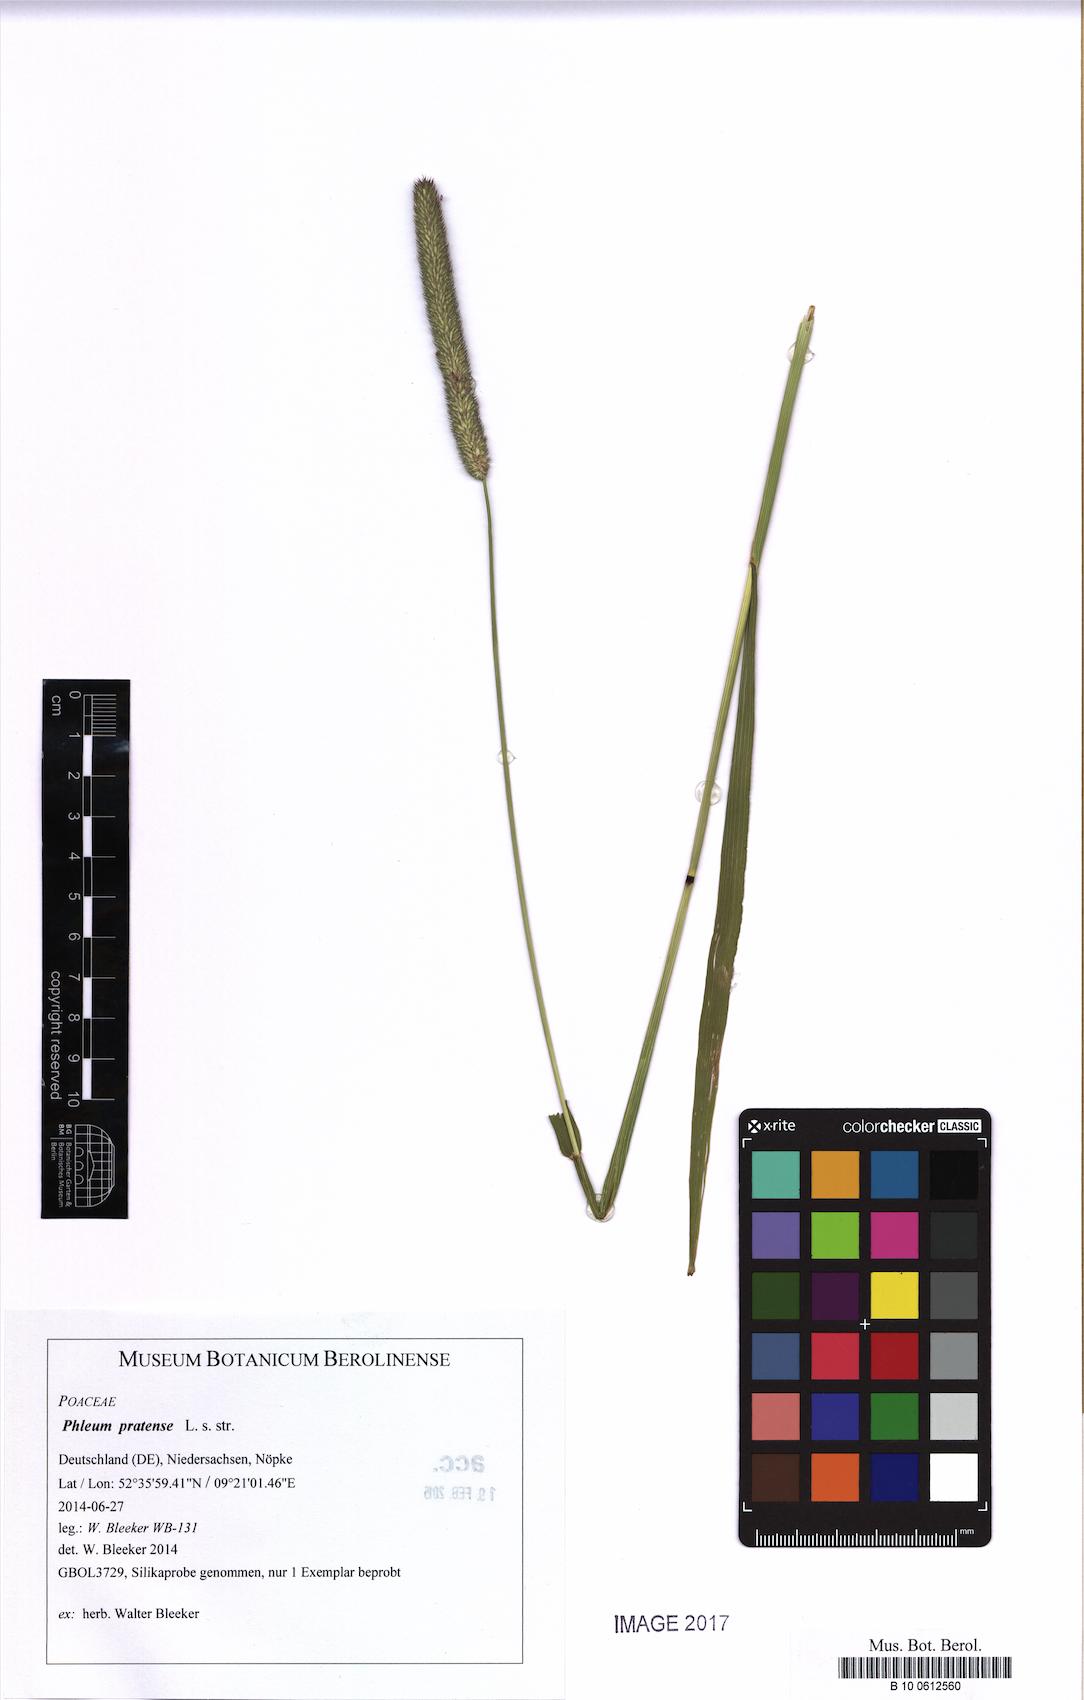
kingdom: Plantae
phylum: Tracheophyta
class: Liliopsida
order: Poales
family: Poaceae
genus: Phleum
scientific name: Phleum pratense
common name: Timothy grass
